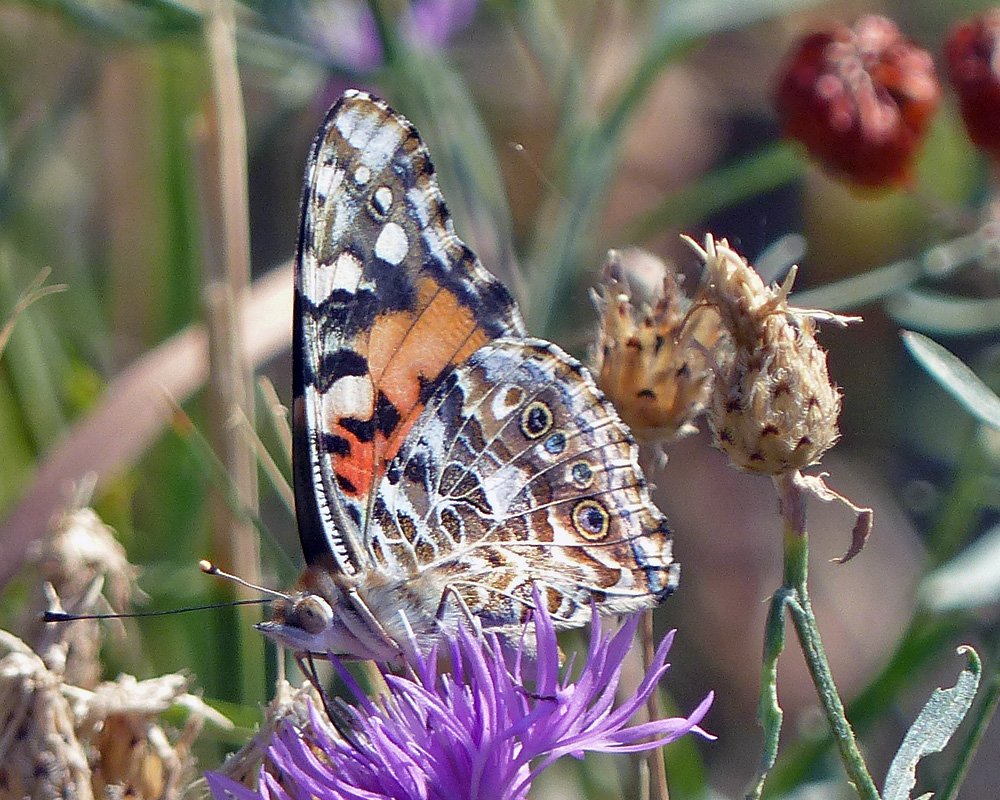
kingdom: Animalia
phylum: Arthropoda
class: Insecta
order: Lepidoptera
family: Nymphalidae
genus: Vanessa
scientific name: Vanessa cardui
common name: Painted Lady
